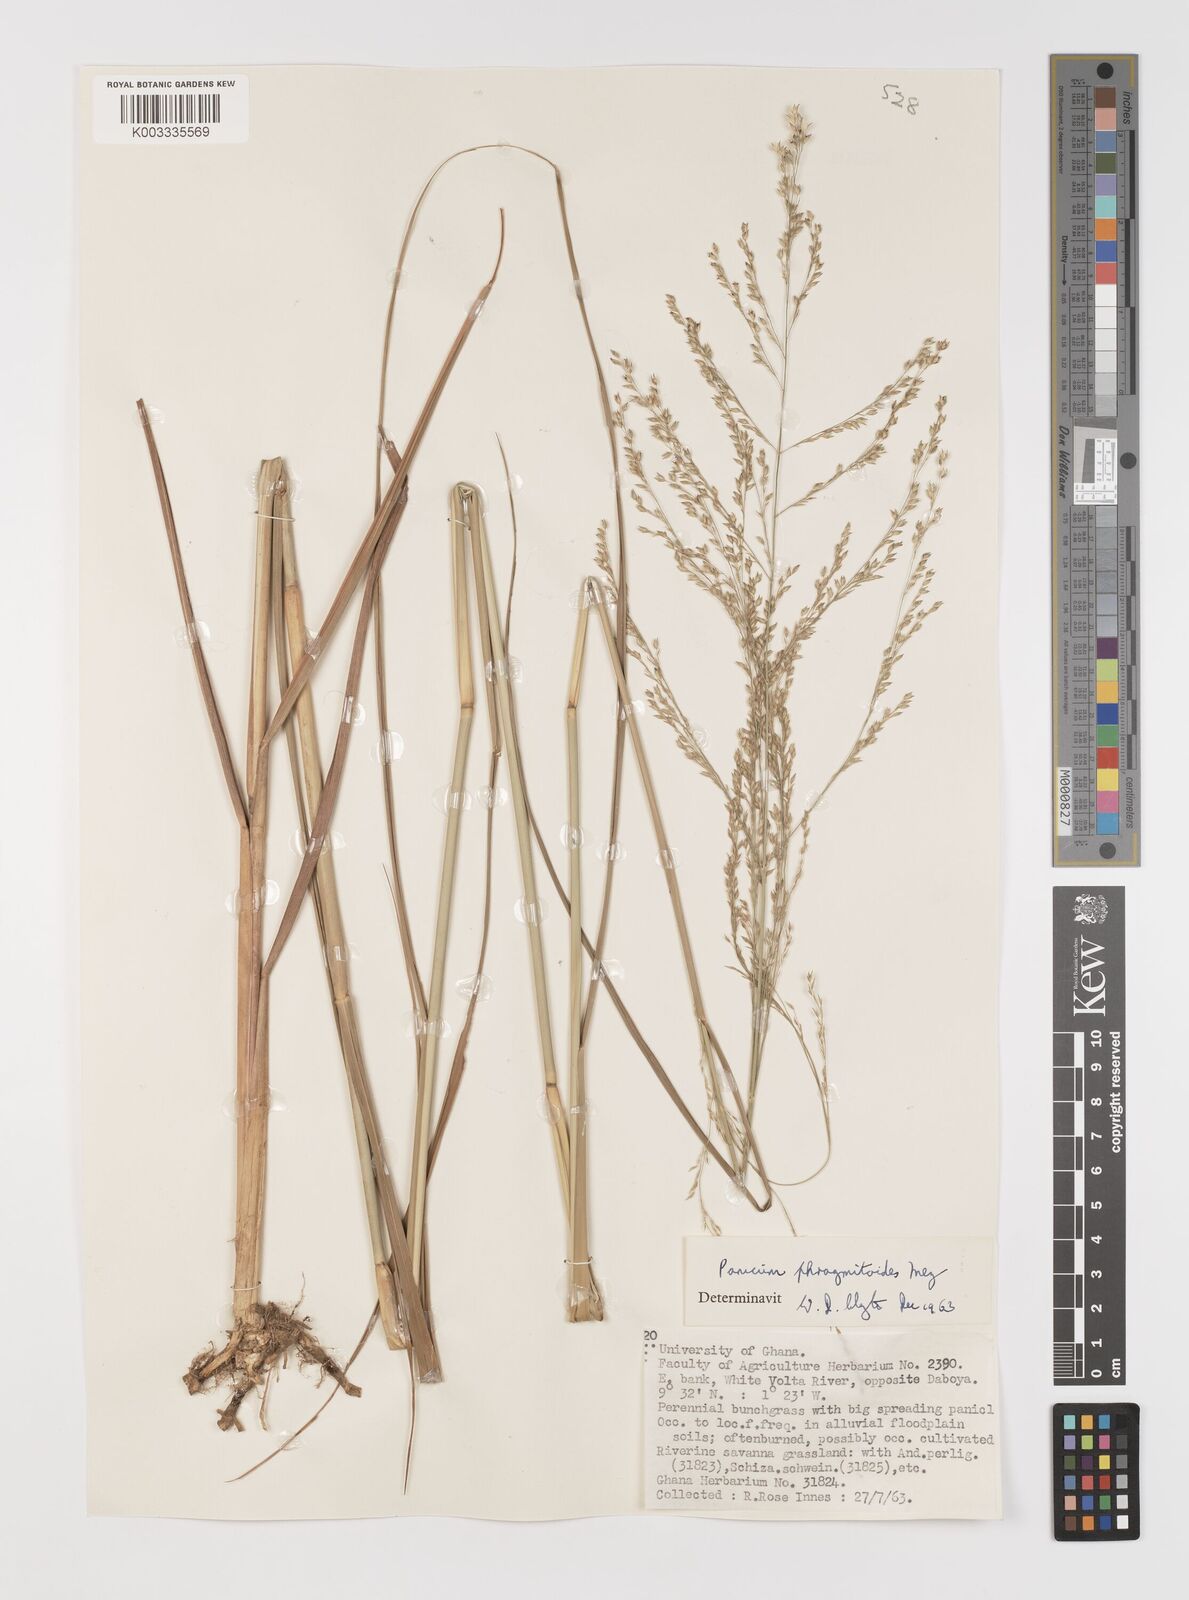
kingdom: Plantae
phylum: Tracheophyta
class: Liliopsida
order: Poales
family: Poaceae
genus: Panicum
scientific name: Panicum phragmitoides
